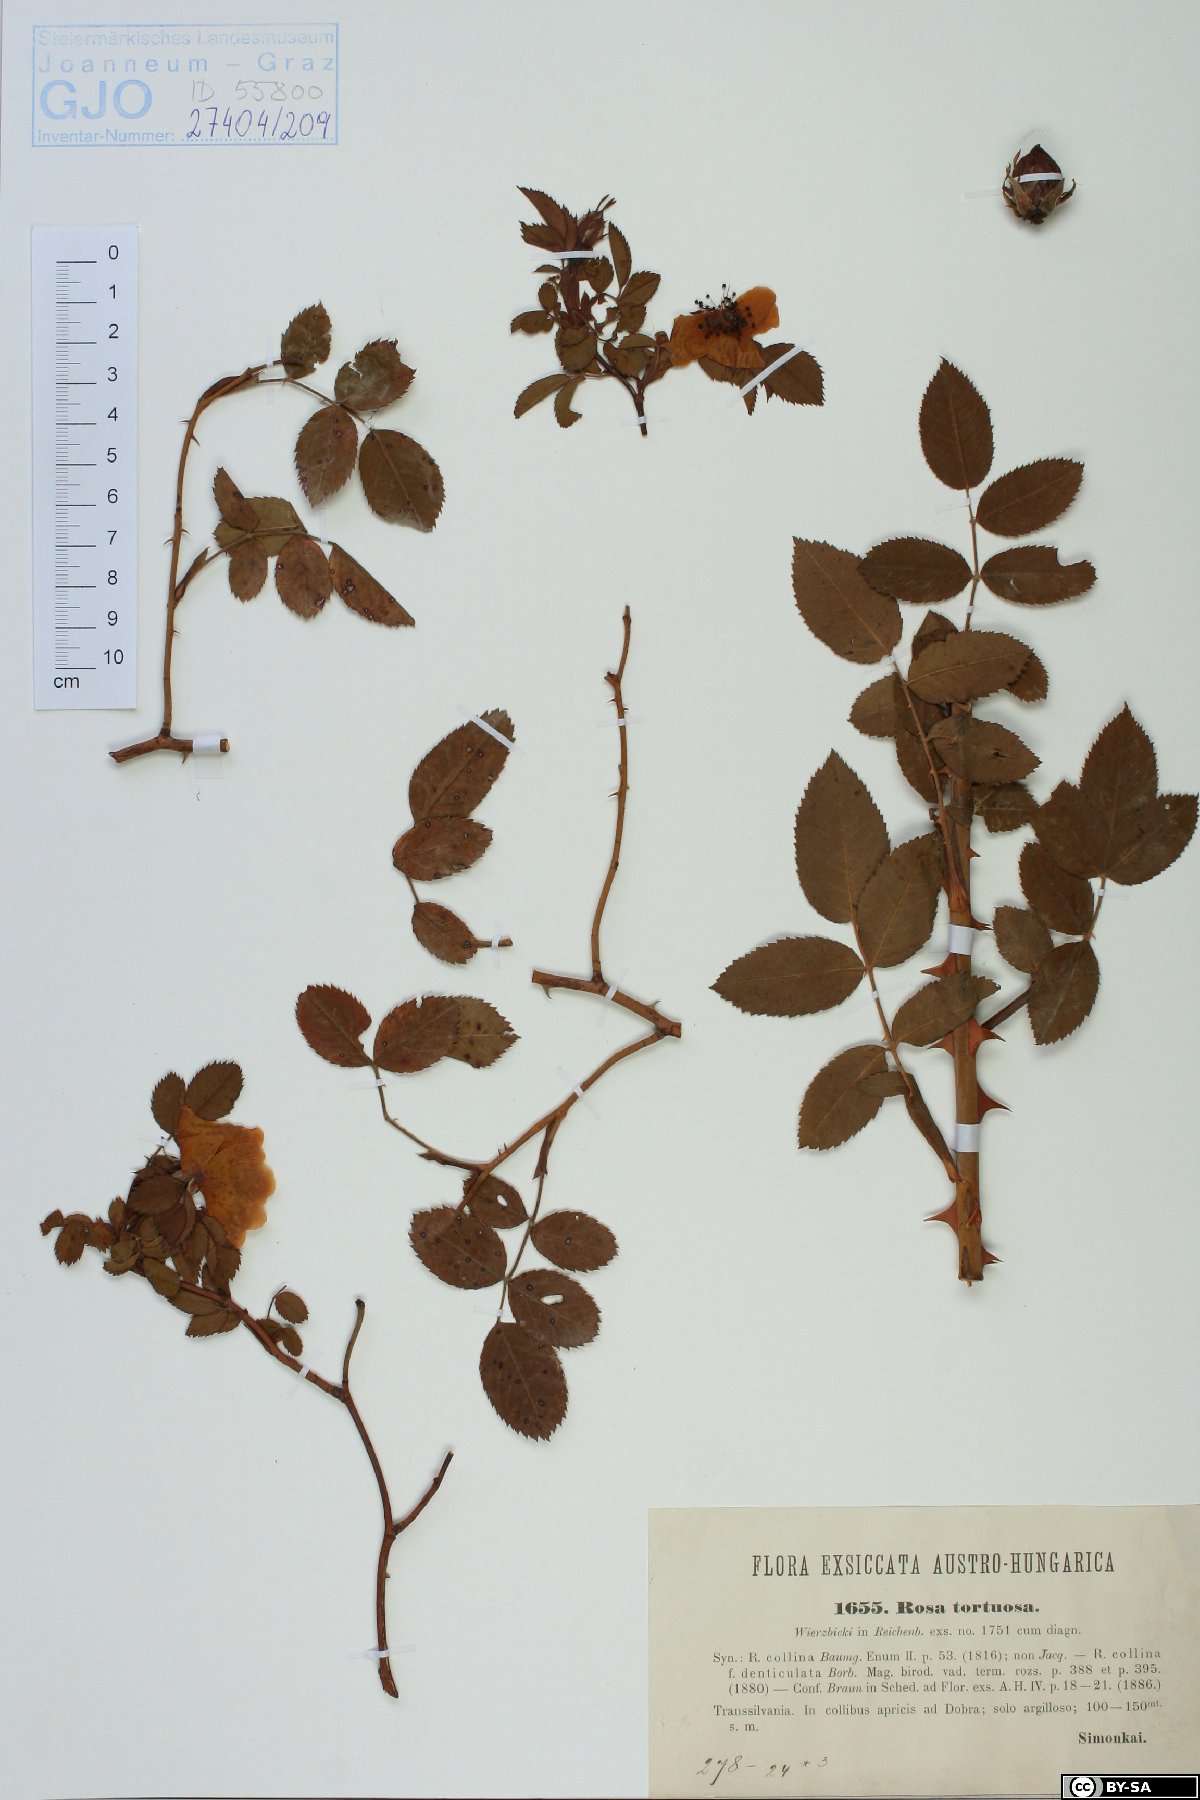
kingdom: Plantae
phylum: Tracheophyta
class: Magnoliopsida
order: Rosales
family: Rosaceae
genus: Rosa
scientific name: Rosa corymbifera
